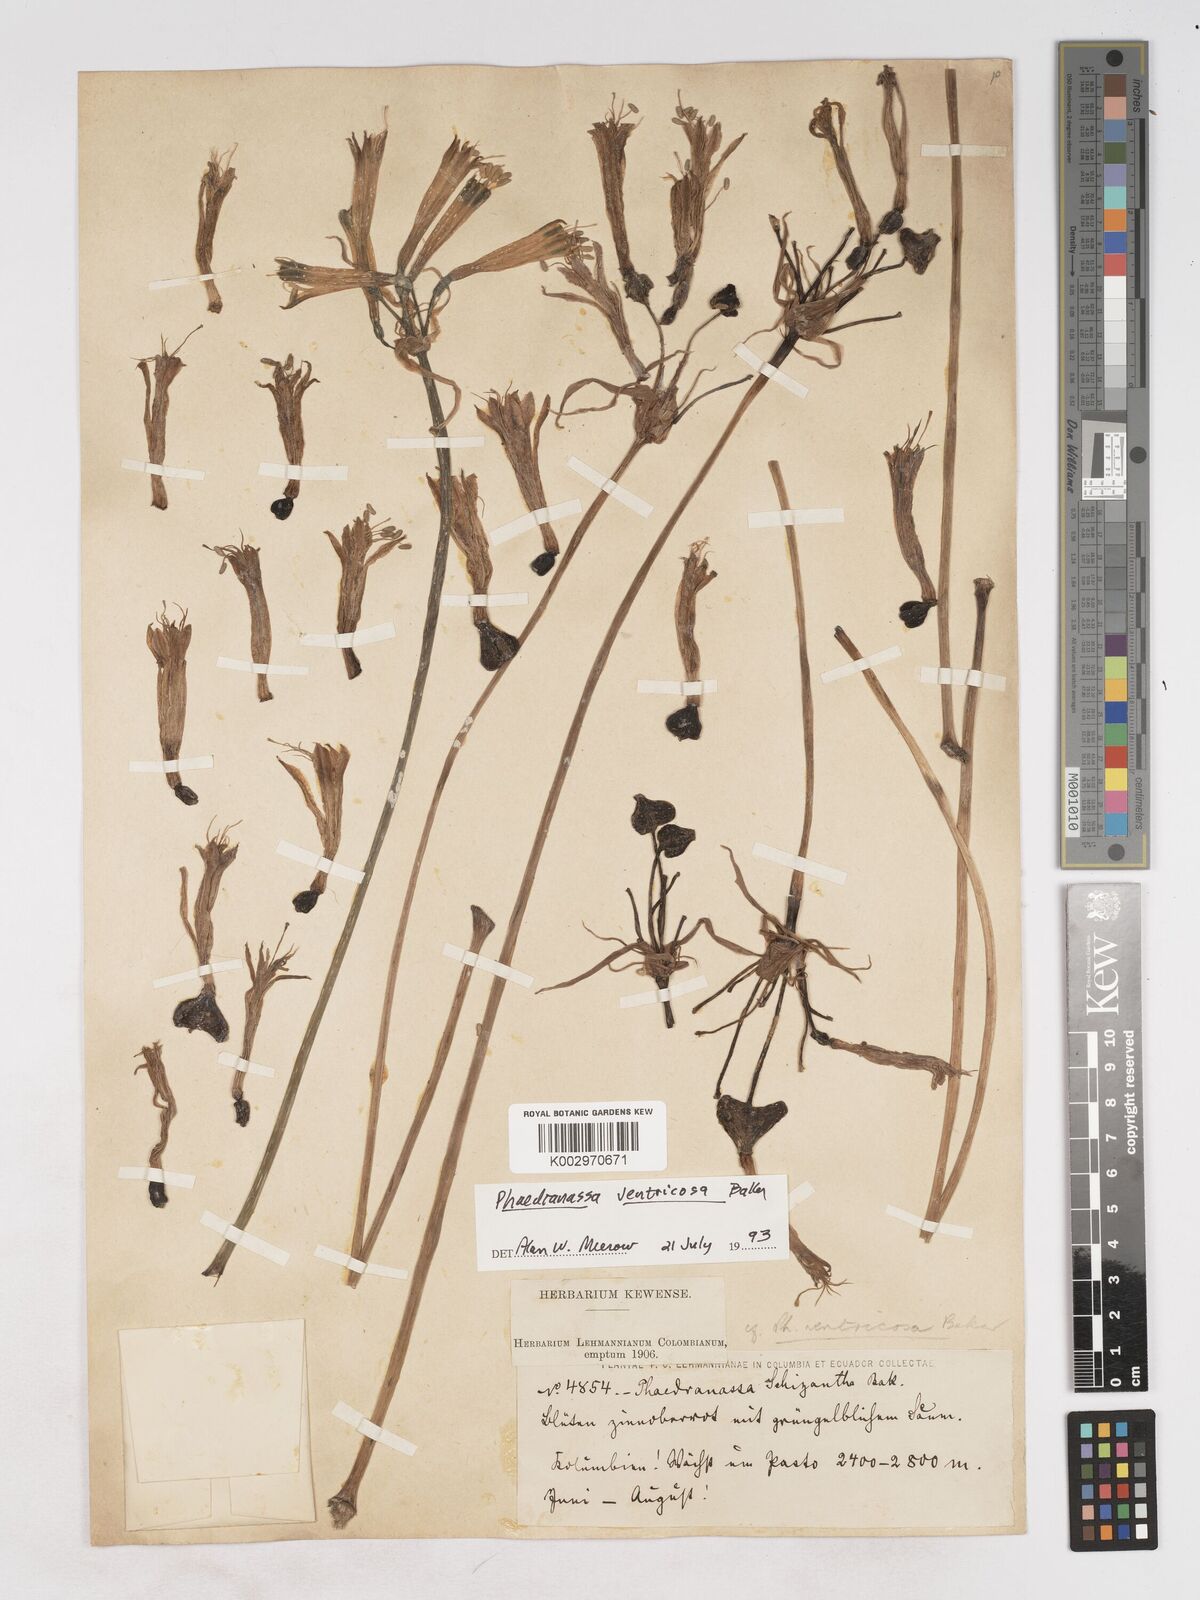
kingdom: Plantae
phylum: Tracheophyta
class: Liliopsida
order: Asparagales
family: Amaryllidaceae
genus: Phaedranassa
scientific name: Phaedranassa dubia
